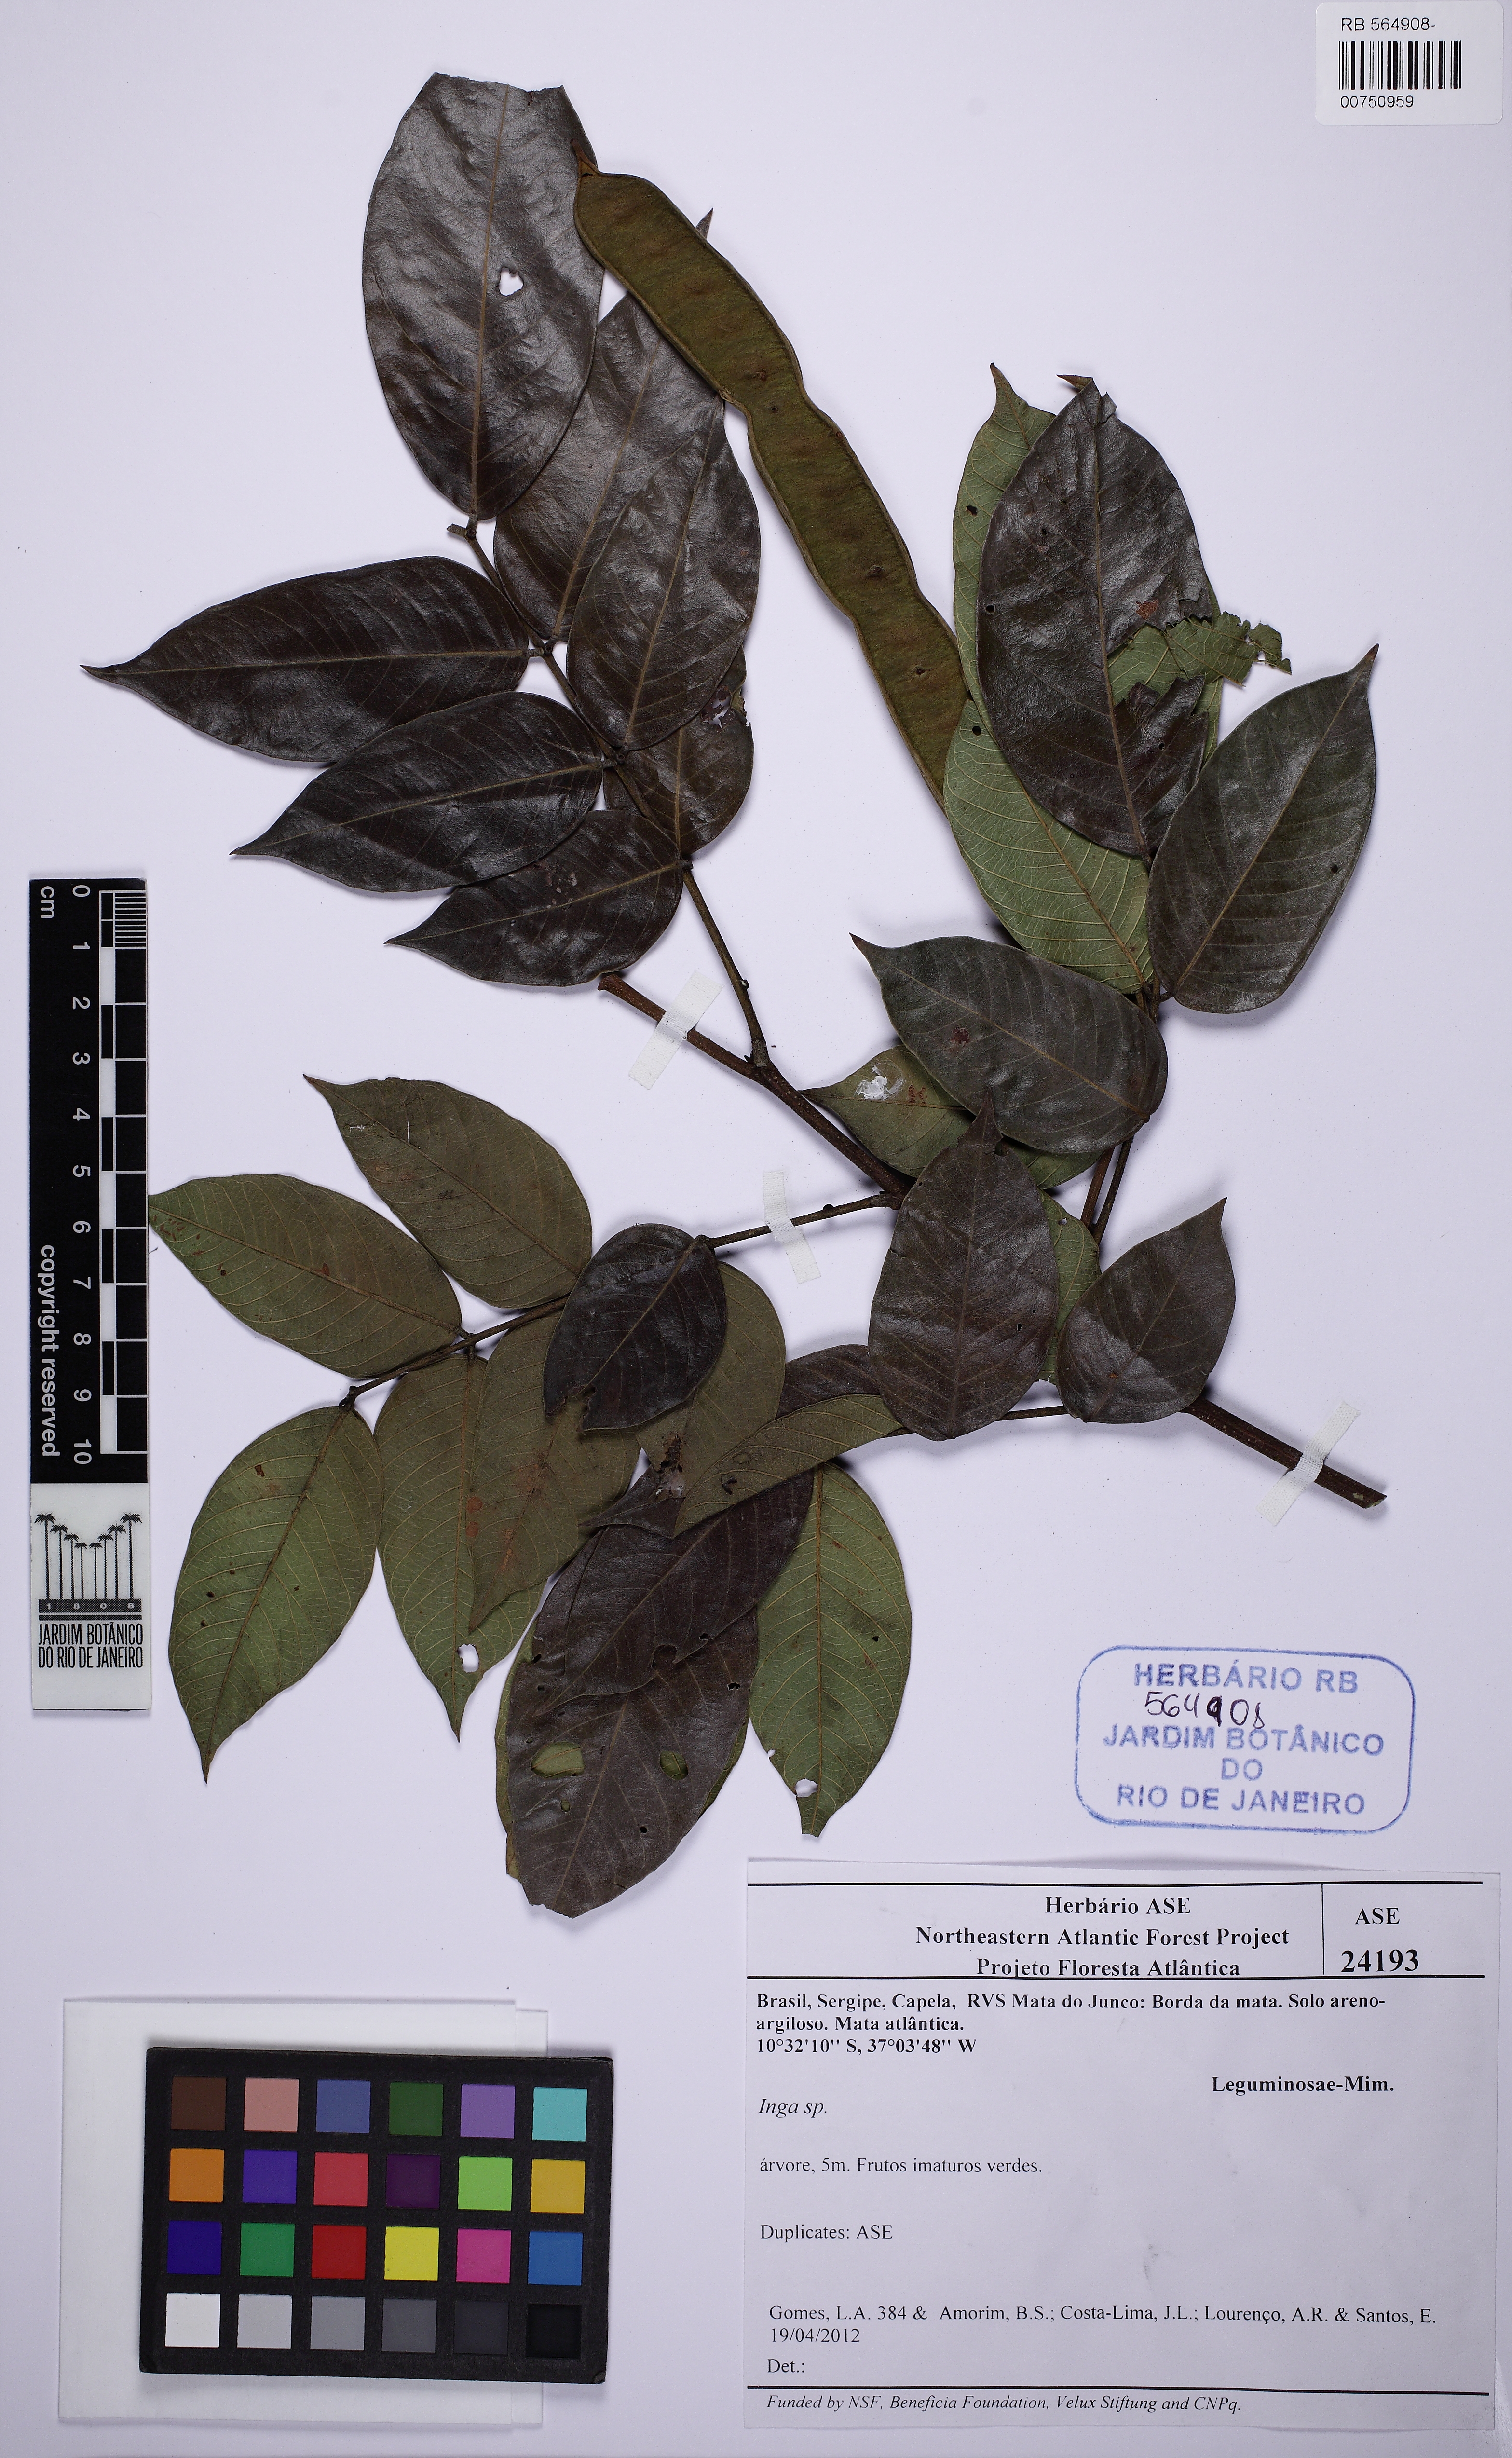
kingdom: Plantae
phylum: Tracheophyta
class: Magnoliopsida
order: Fabales
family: Fabaceae
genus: Inga
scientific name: Inga thibaudiana
